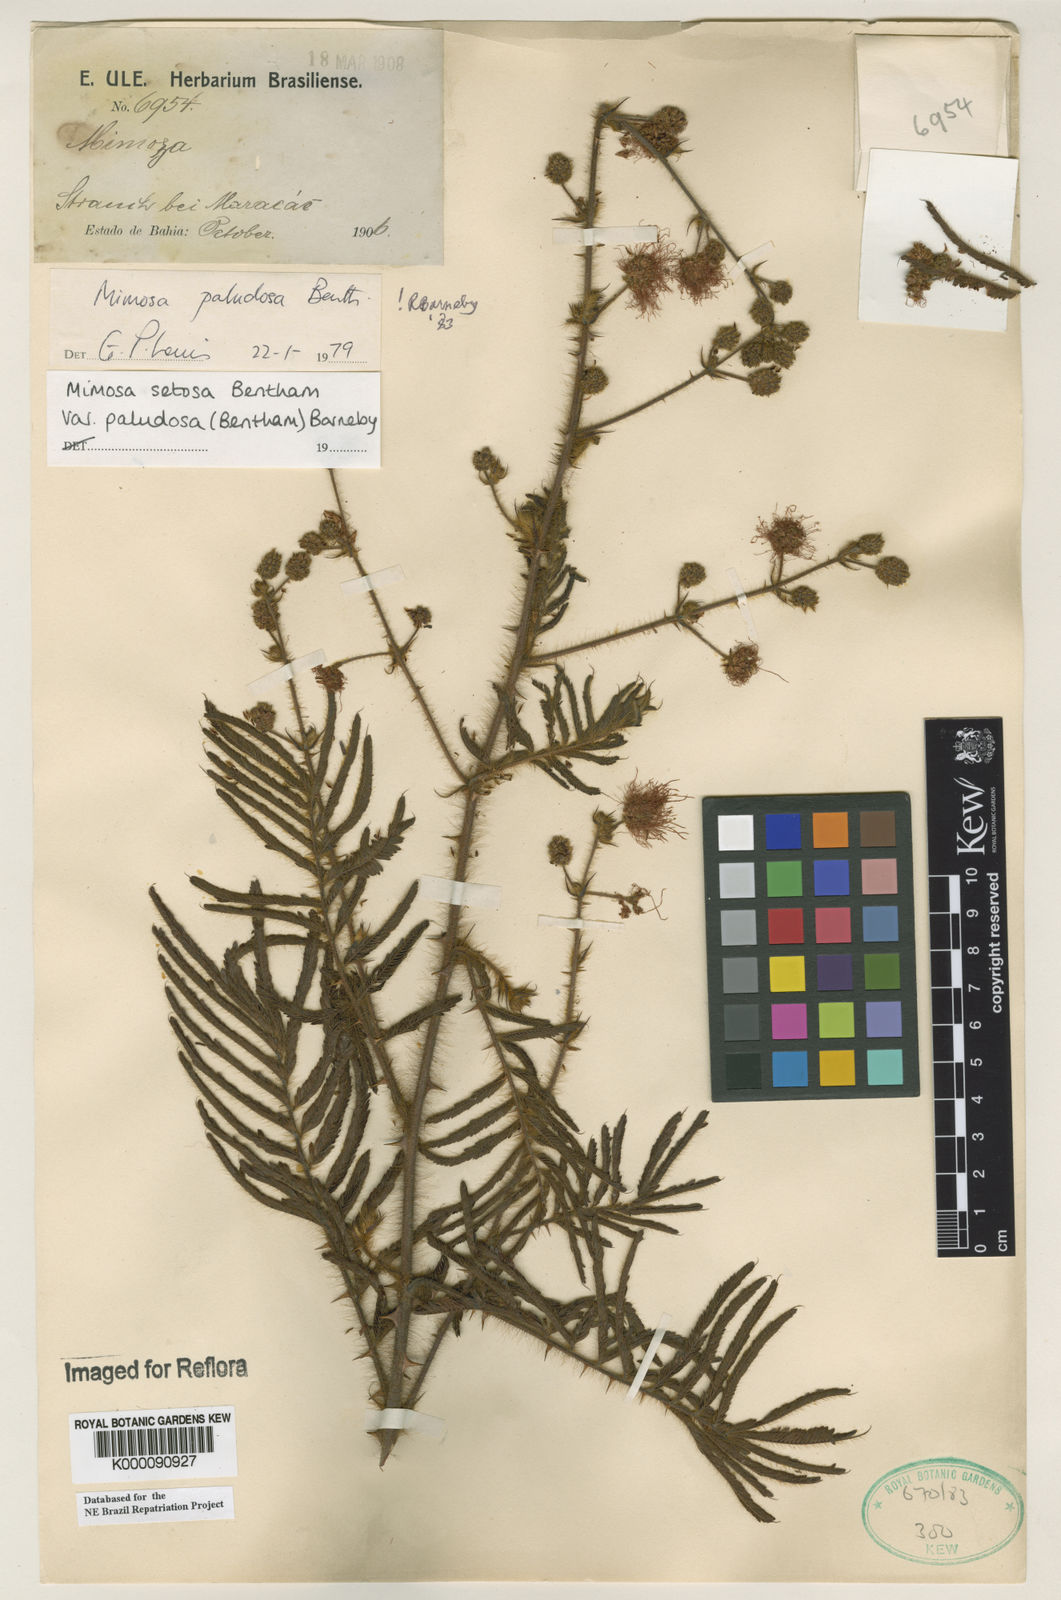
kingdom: Plantae
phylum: Tracheophyta
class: Magnoliopsida
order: Fabales
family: Fabaceae
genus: Mimosa
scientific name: Mimosa paludosa
